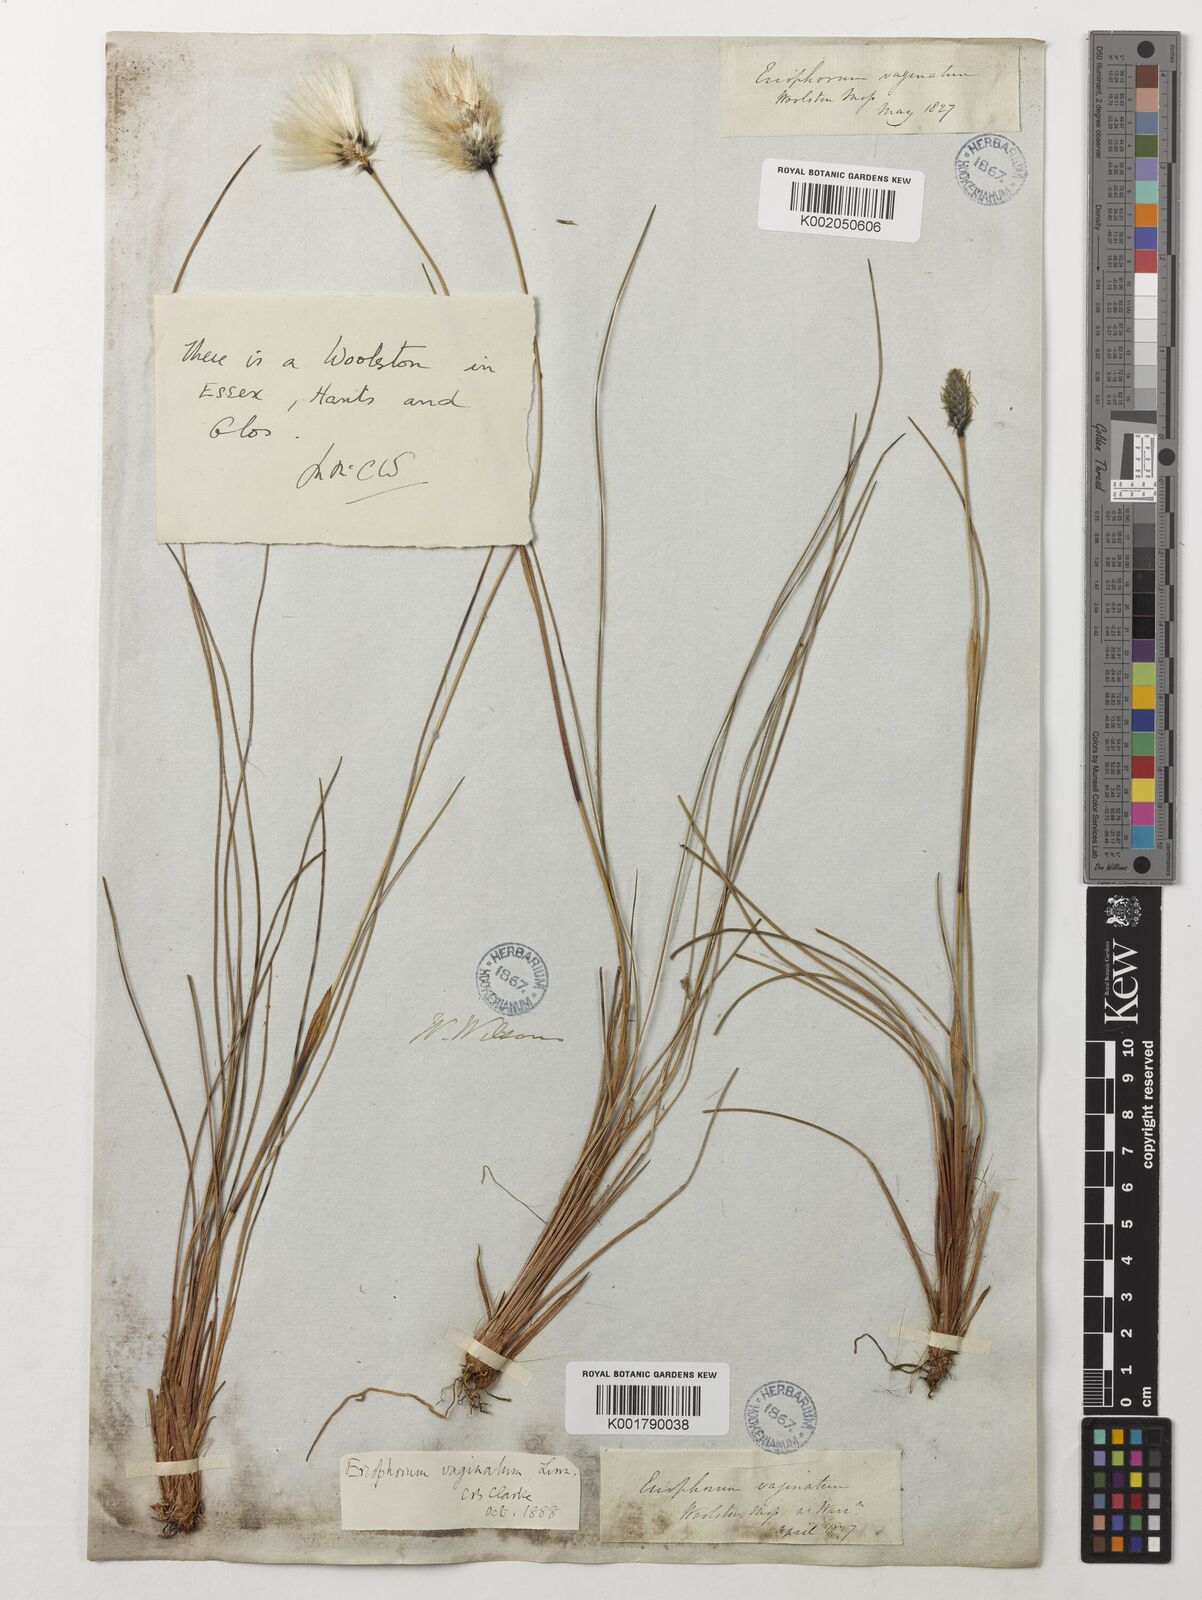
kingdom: Plantae
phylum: Tracheophyta
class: Liliopsida
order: Poales
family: Cyperaceae
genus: Eriophorum
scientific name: Eriophorum vaginatum
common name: Hare's-tail cottongrass
